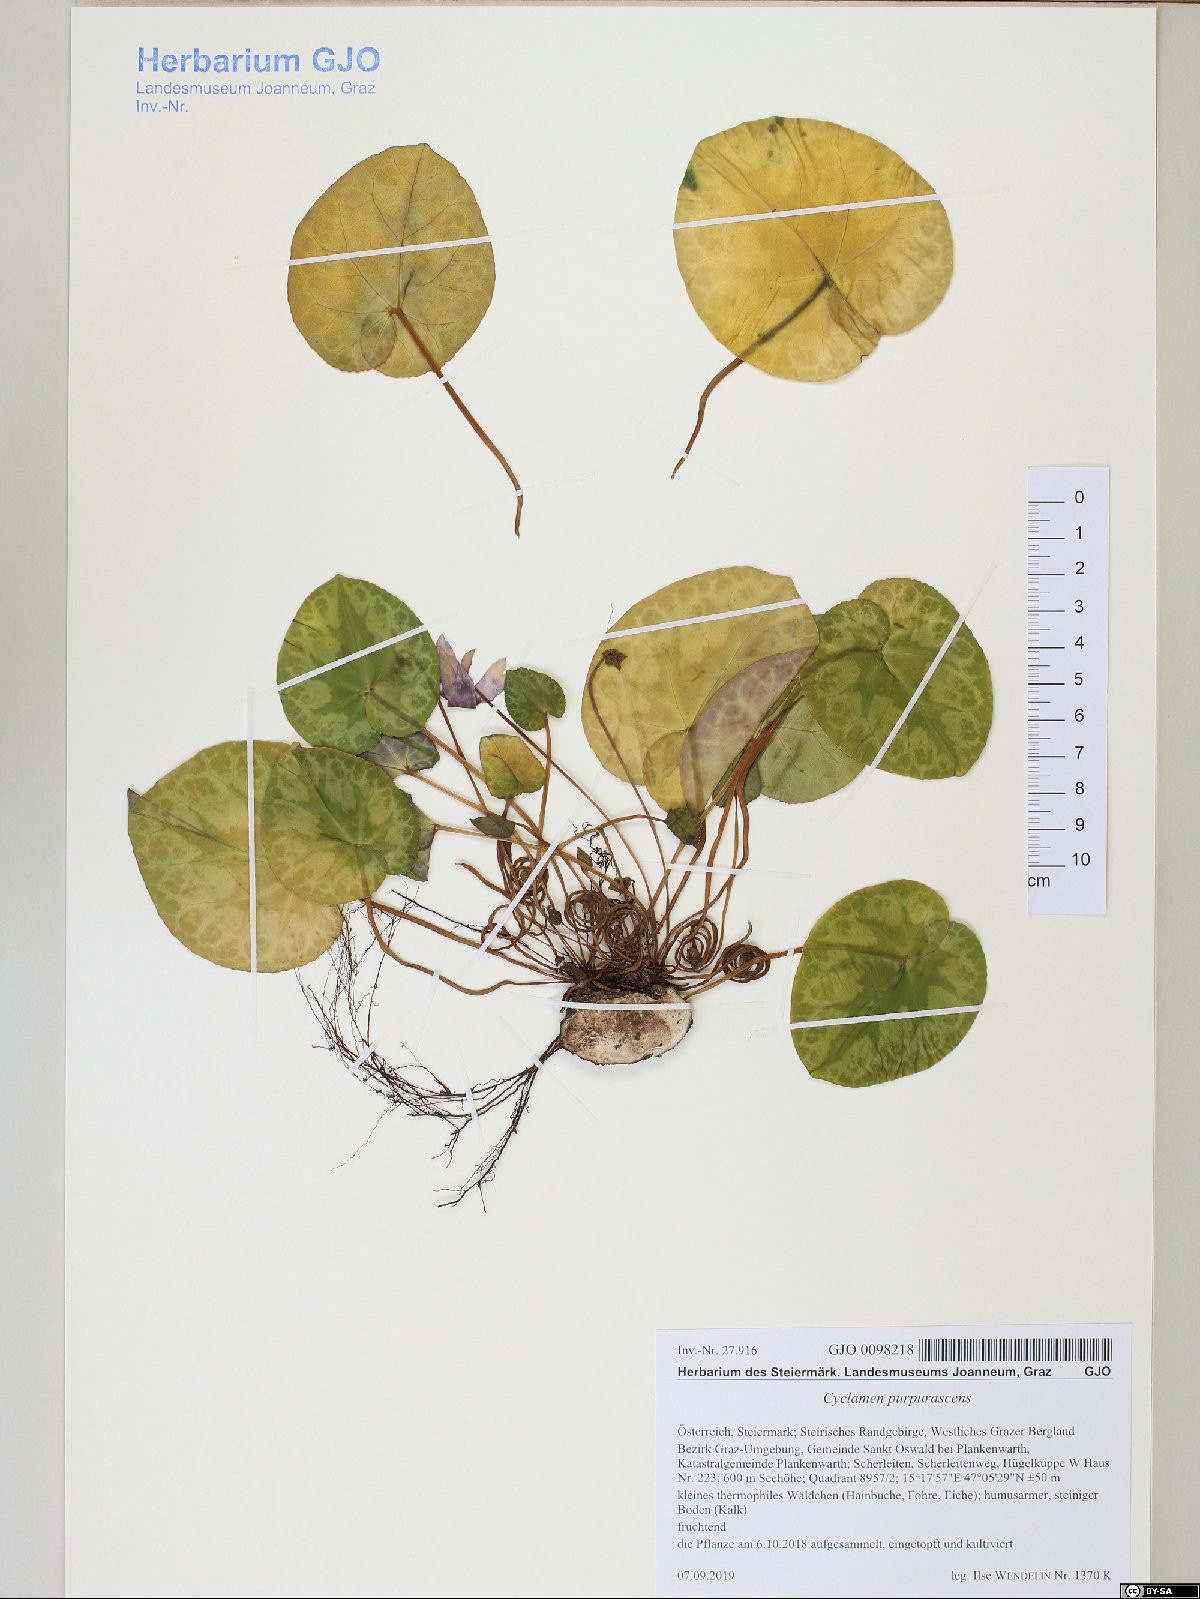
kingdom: Plantae
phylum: Tracheophyta
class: Magnoliopsida
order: Ericales
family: Primulaceae
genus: Cyclamen
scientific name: Cyclamen purpurascens
